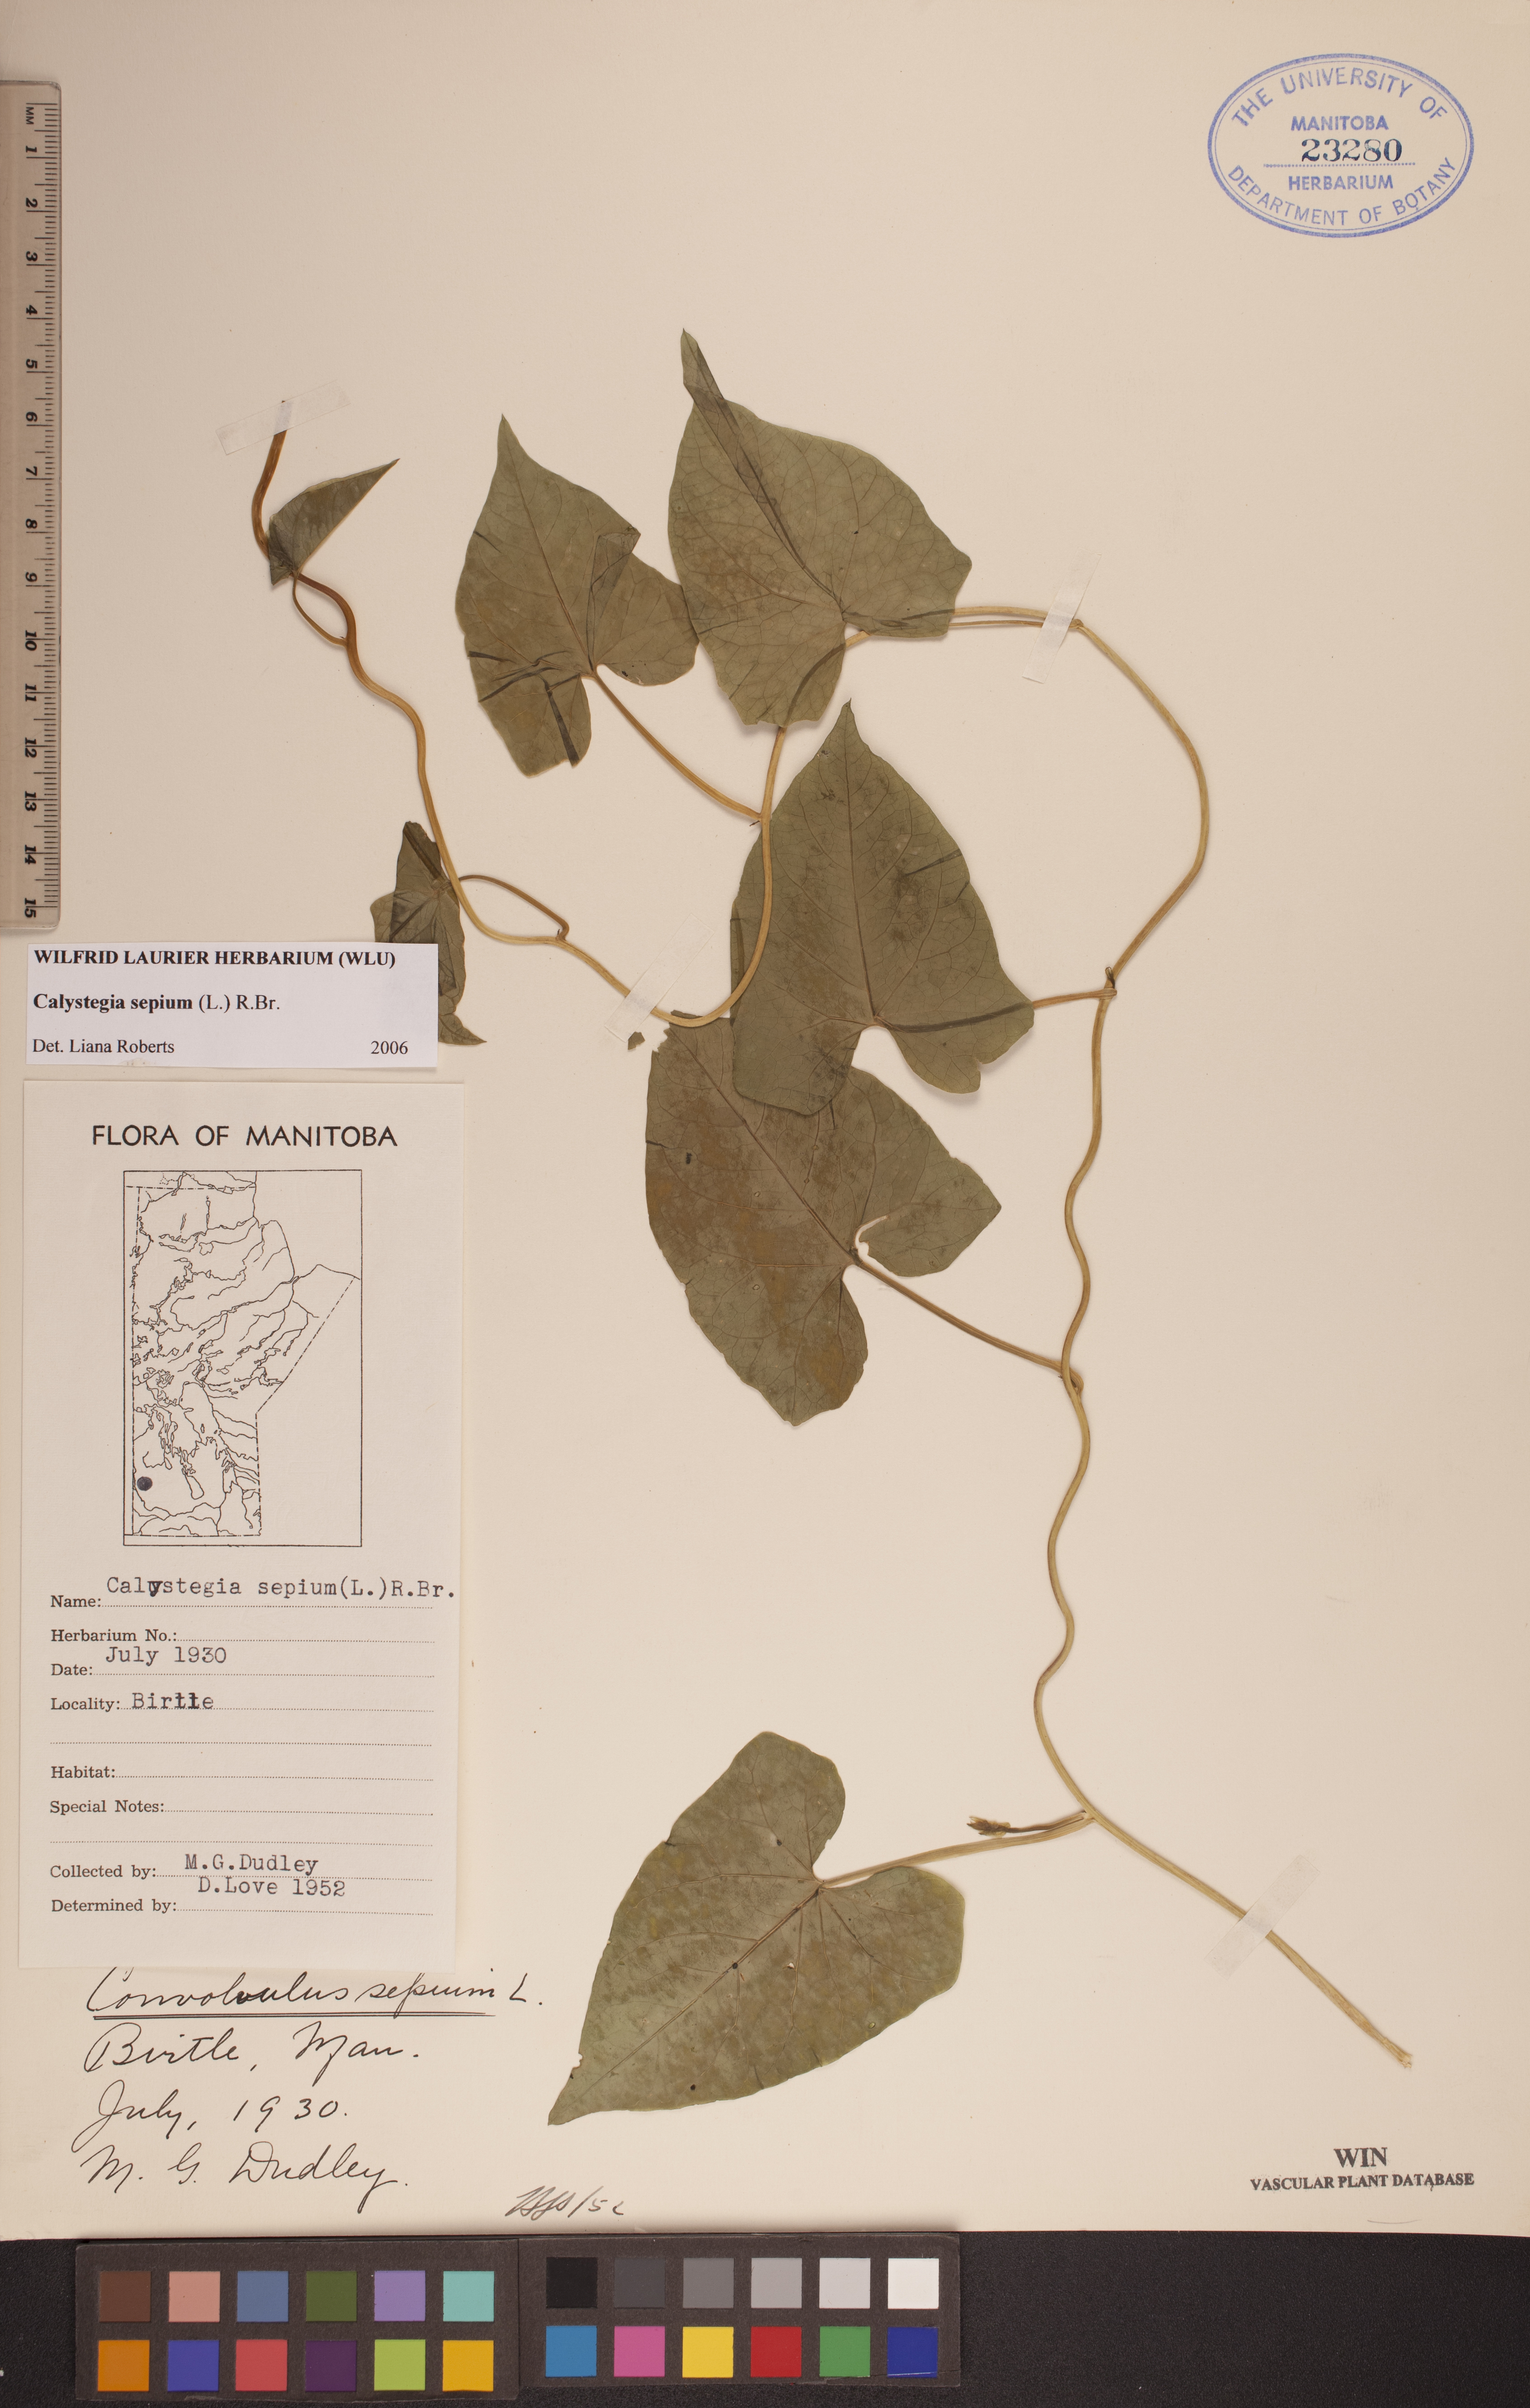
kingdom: Plantae
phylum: Tracheophyta
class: Magnoliopsida
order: Solanales
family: Convolvulaceae
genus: Calystegia
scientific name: Calystegia sepium
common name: Hedge bindweed
